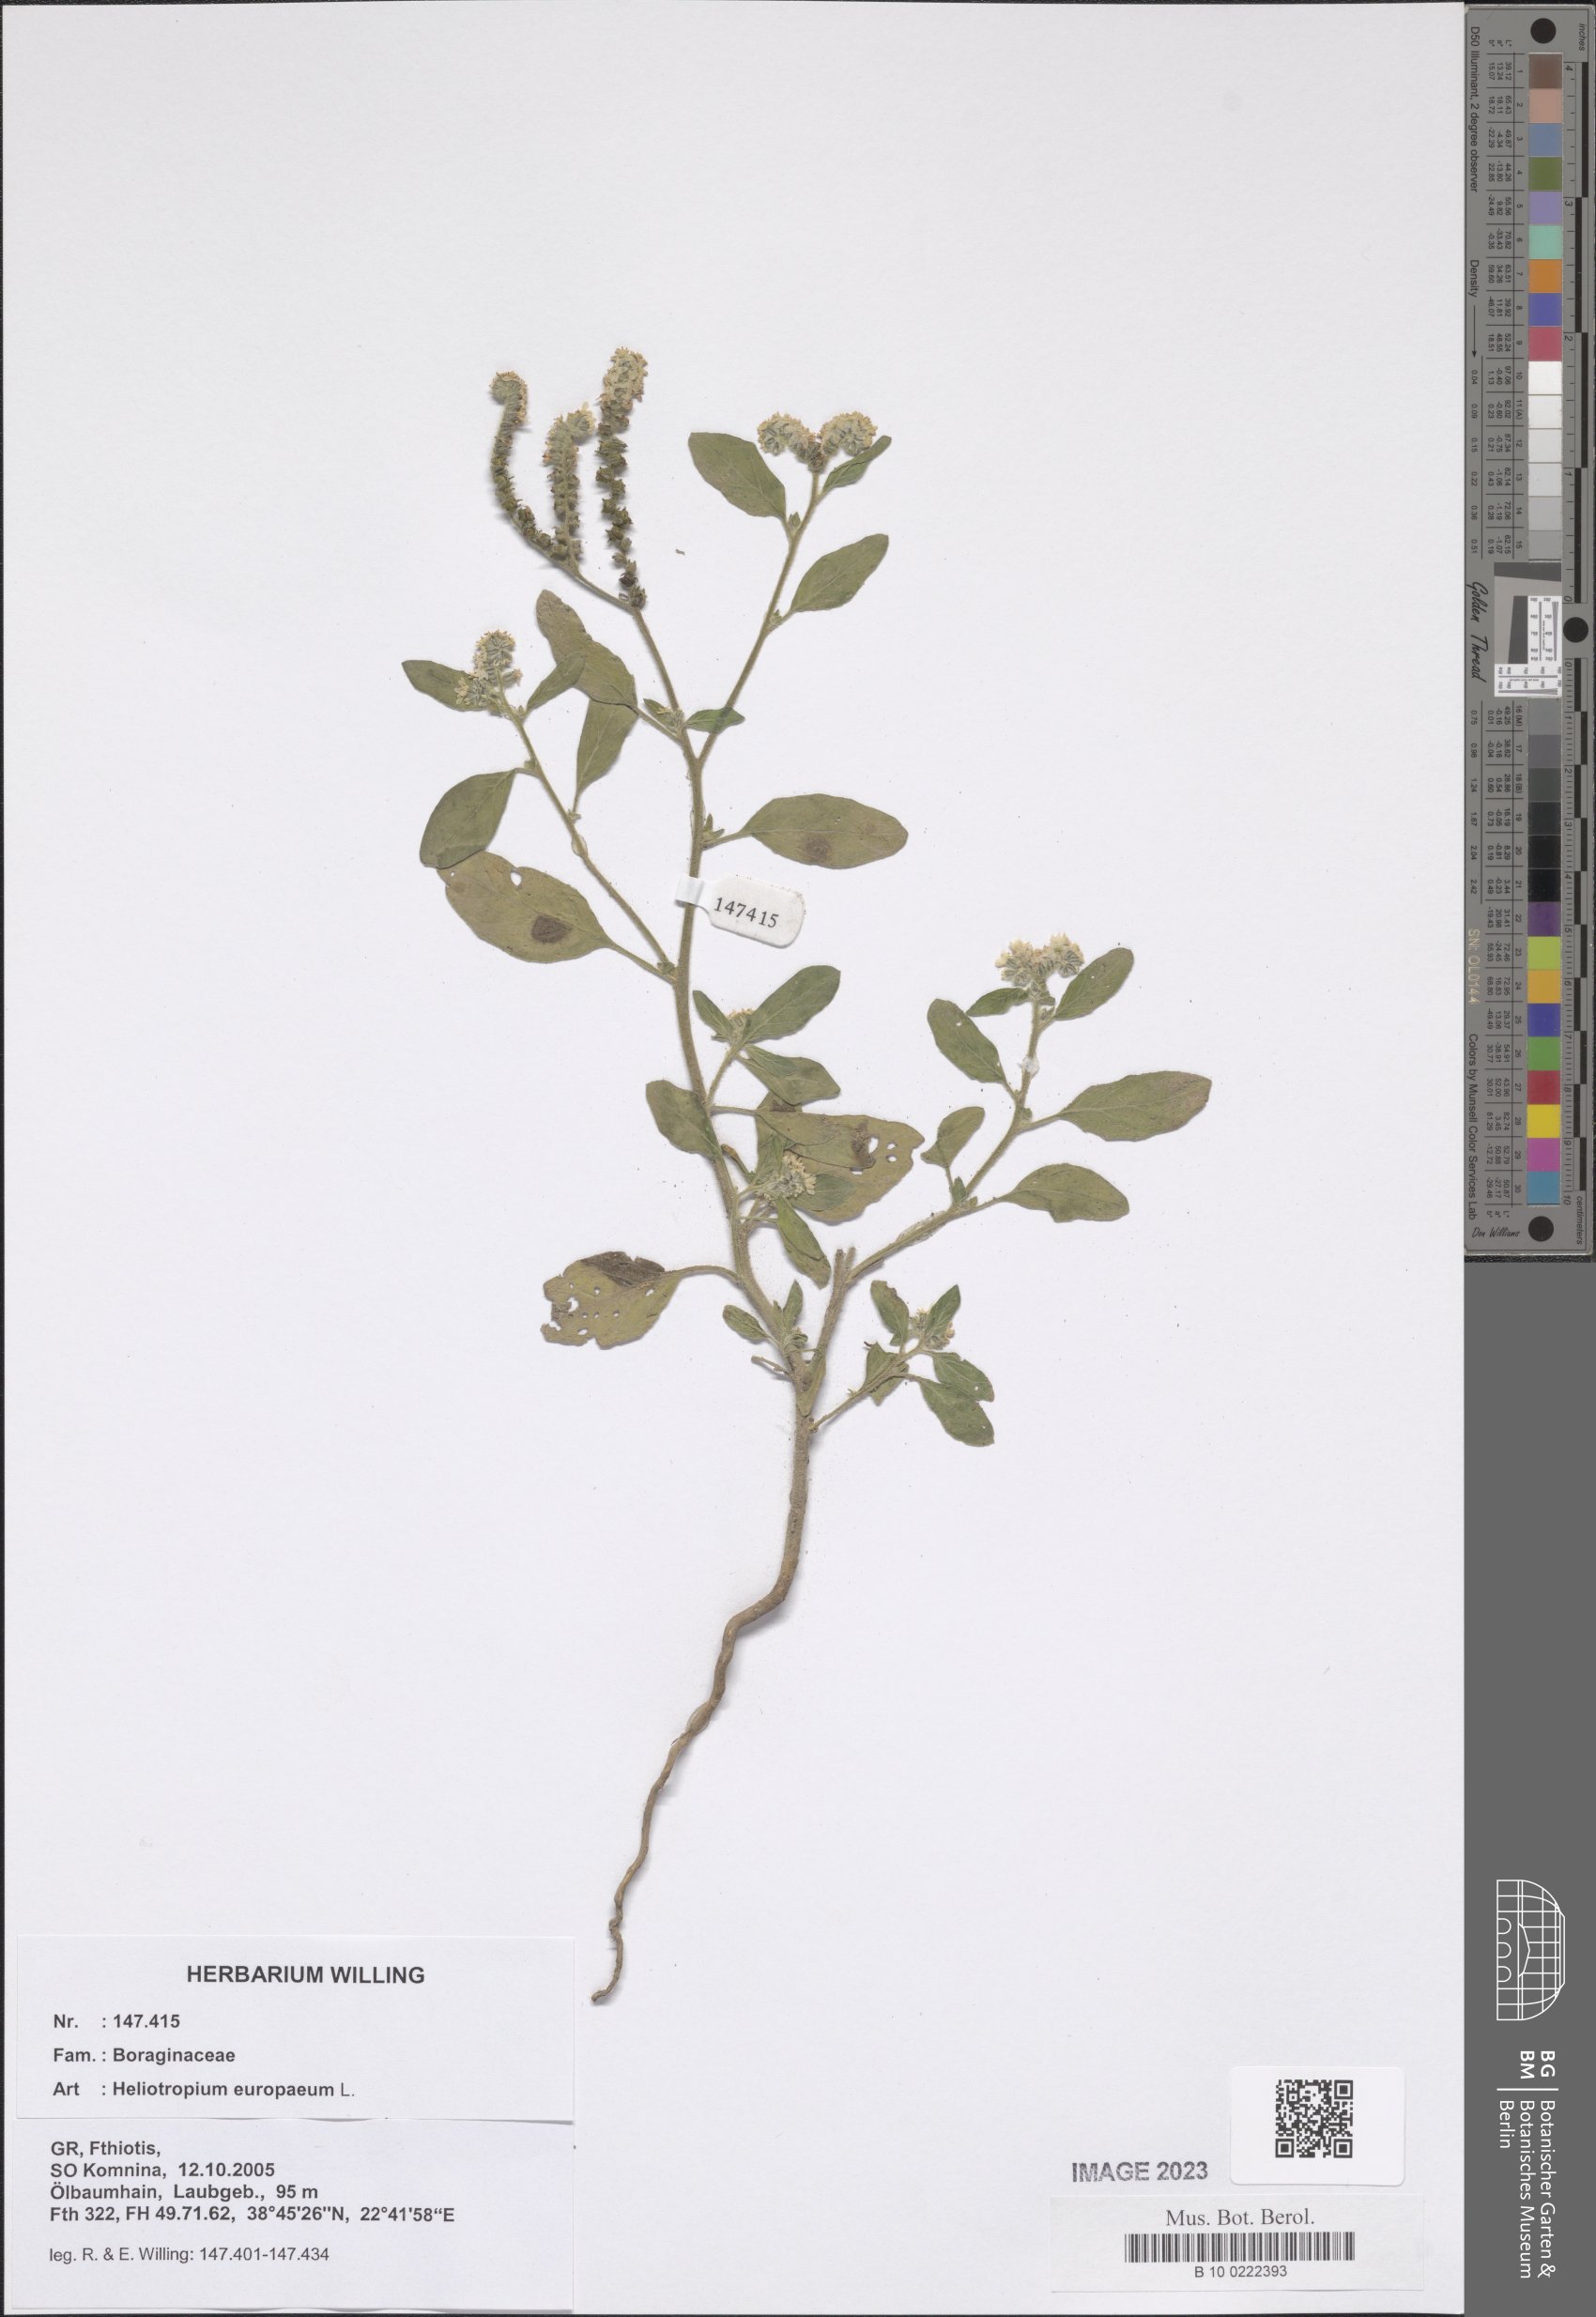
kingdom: Plantae
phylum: Tracheophyta
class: Magnoliopsida
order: Boraginales
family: Heliotropiaceae
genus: Heliotropium
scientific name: Heliotropium europaeum
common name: European heliotrope
